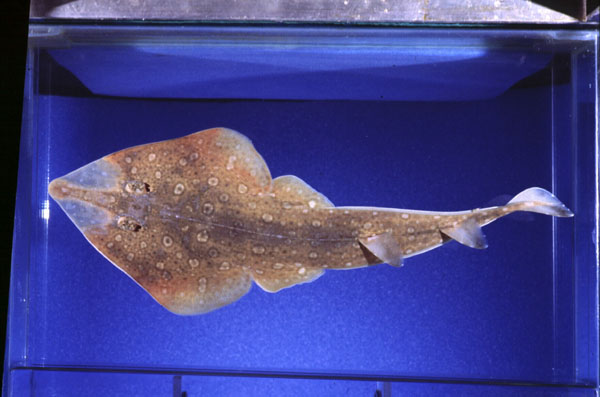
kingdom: Animalia
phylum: Chordata
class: Elasmobranchii
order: Rhinopristiformes
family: Rhinobatidae
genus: Acroteriobatus
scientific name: Acroteriobatus annulatus
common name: Lesser guitarfish
